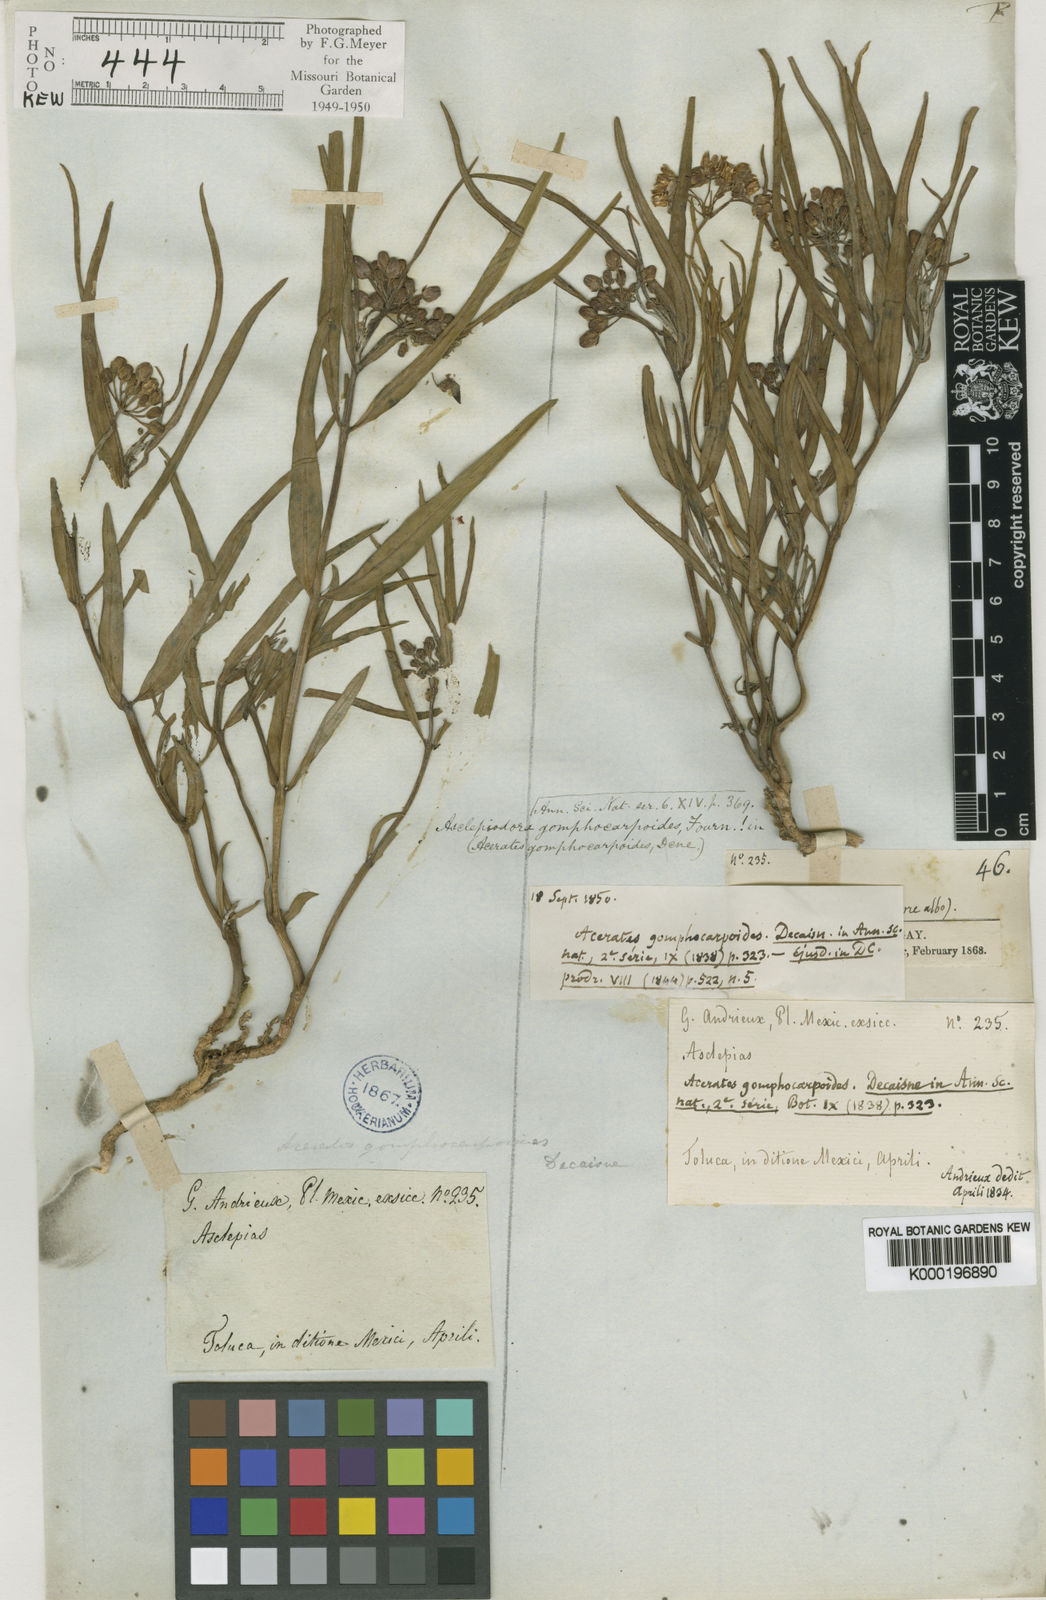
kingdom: Plantae
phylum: Tracheophyta
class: Magnoliopsida
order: Gentianales
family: Apocynaceae
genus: Asclepias
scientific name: Asclepias fournieri
